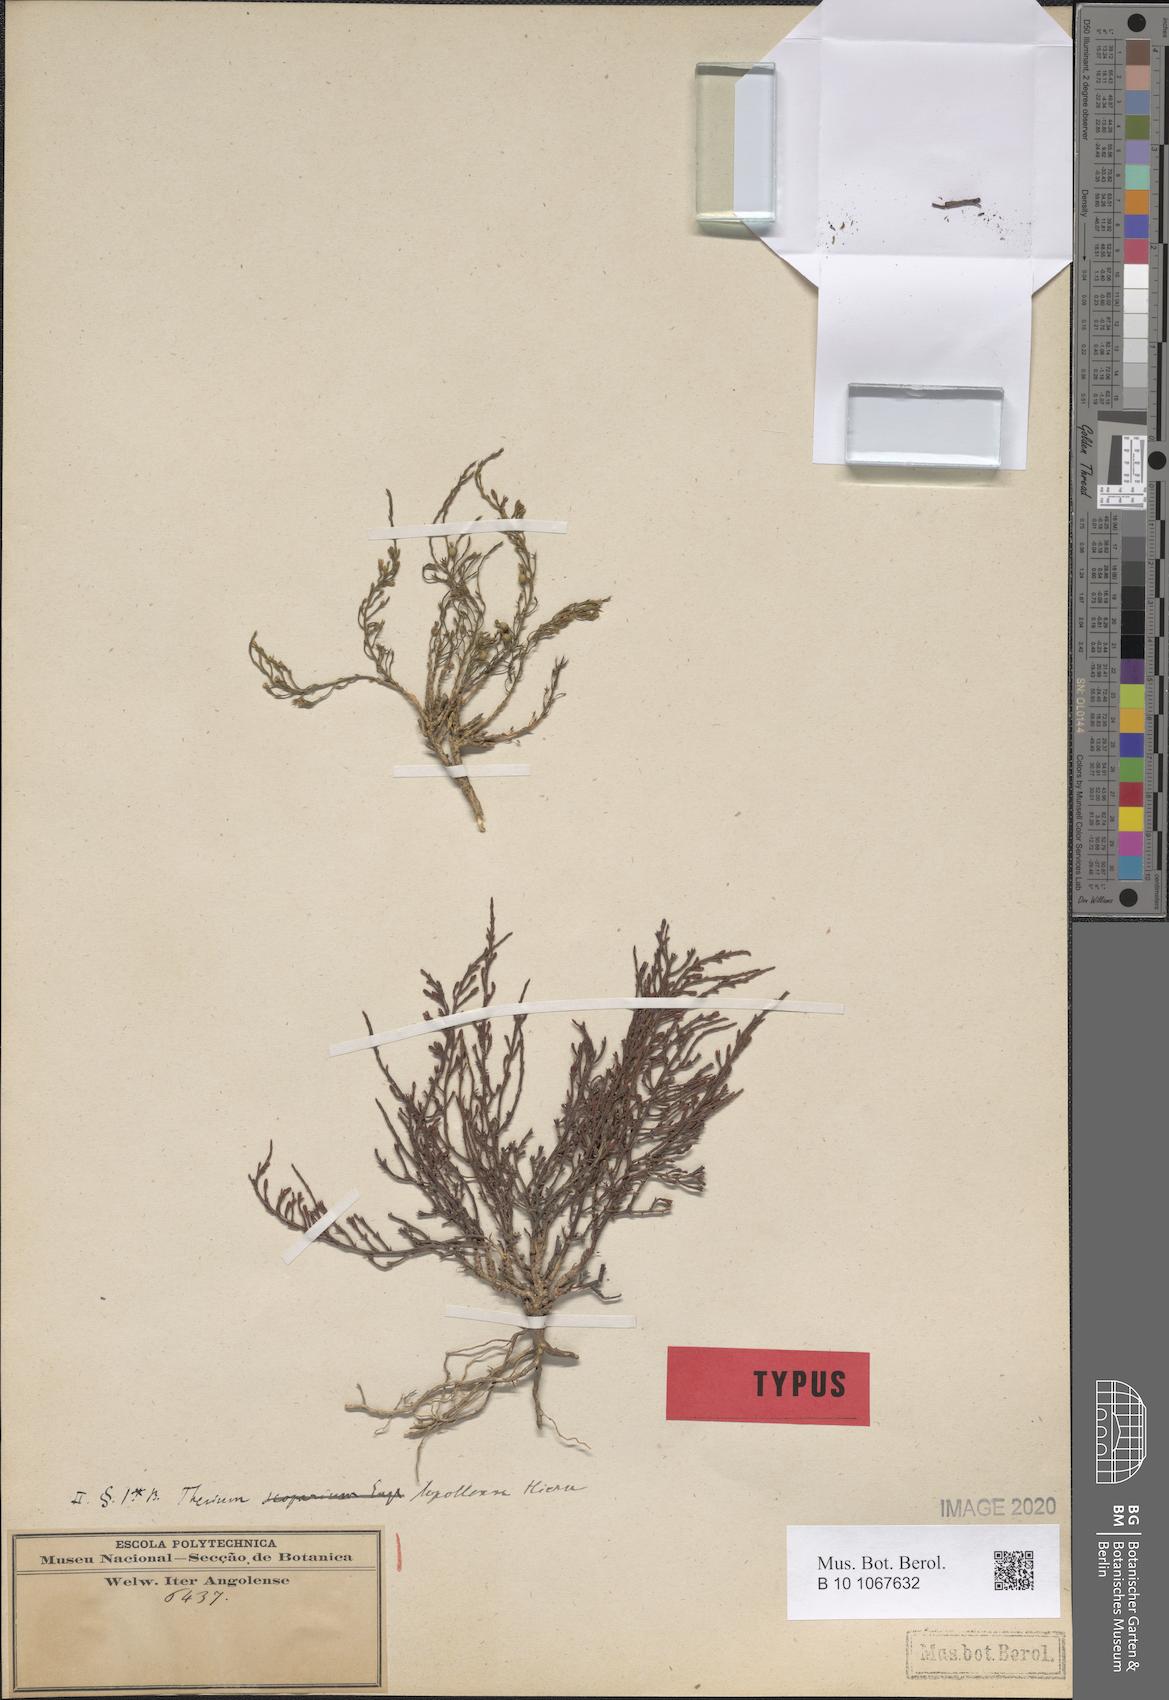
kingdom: Plantae
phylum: Tracheophyta
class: Magnoliopsida
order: Santalales
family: Thesiaceae
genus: Thesium
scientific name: Thesium lopollense
